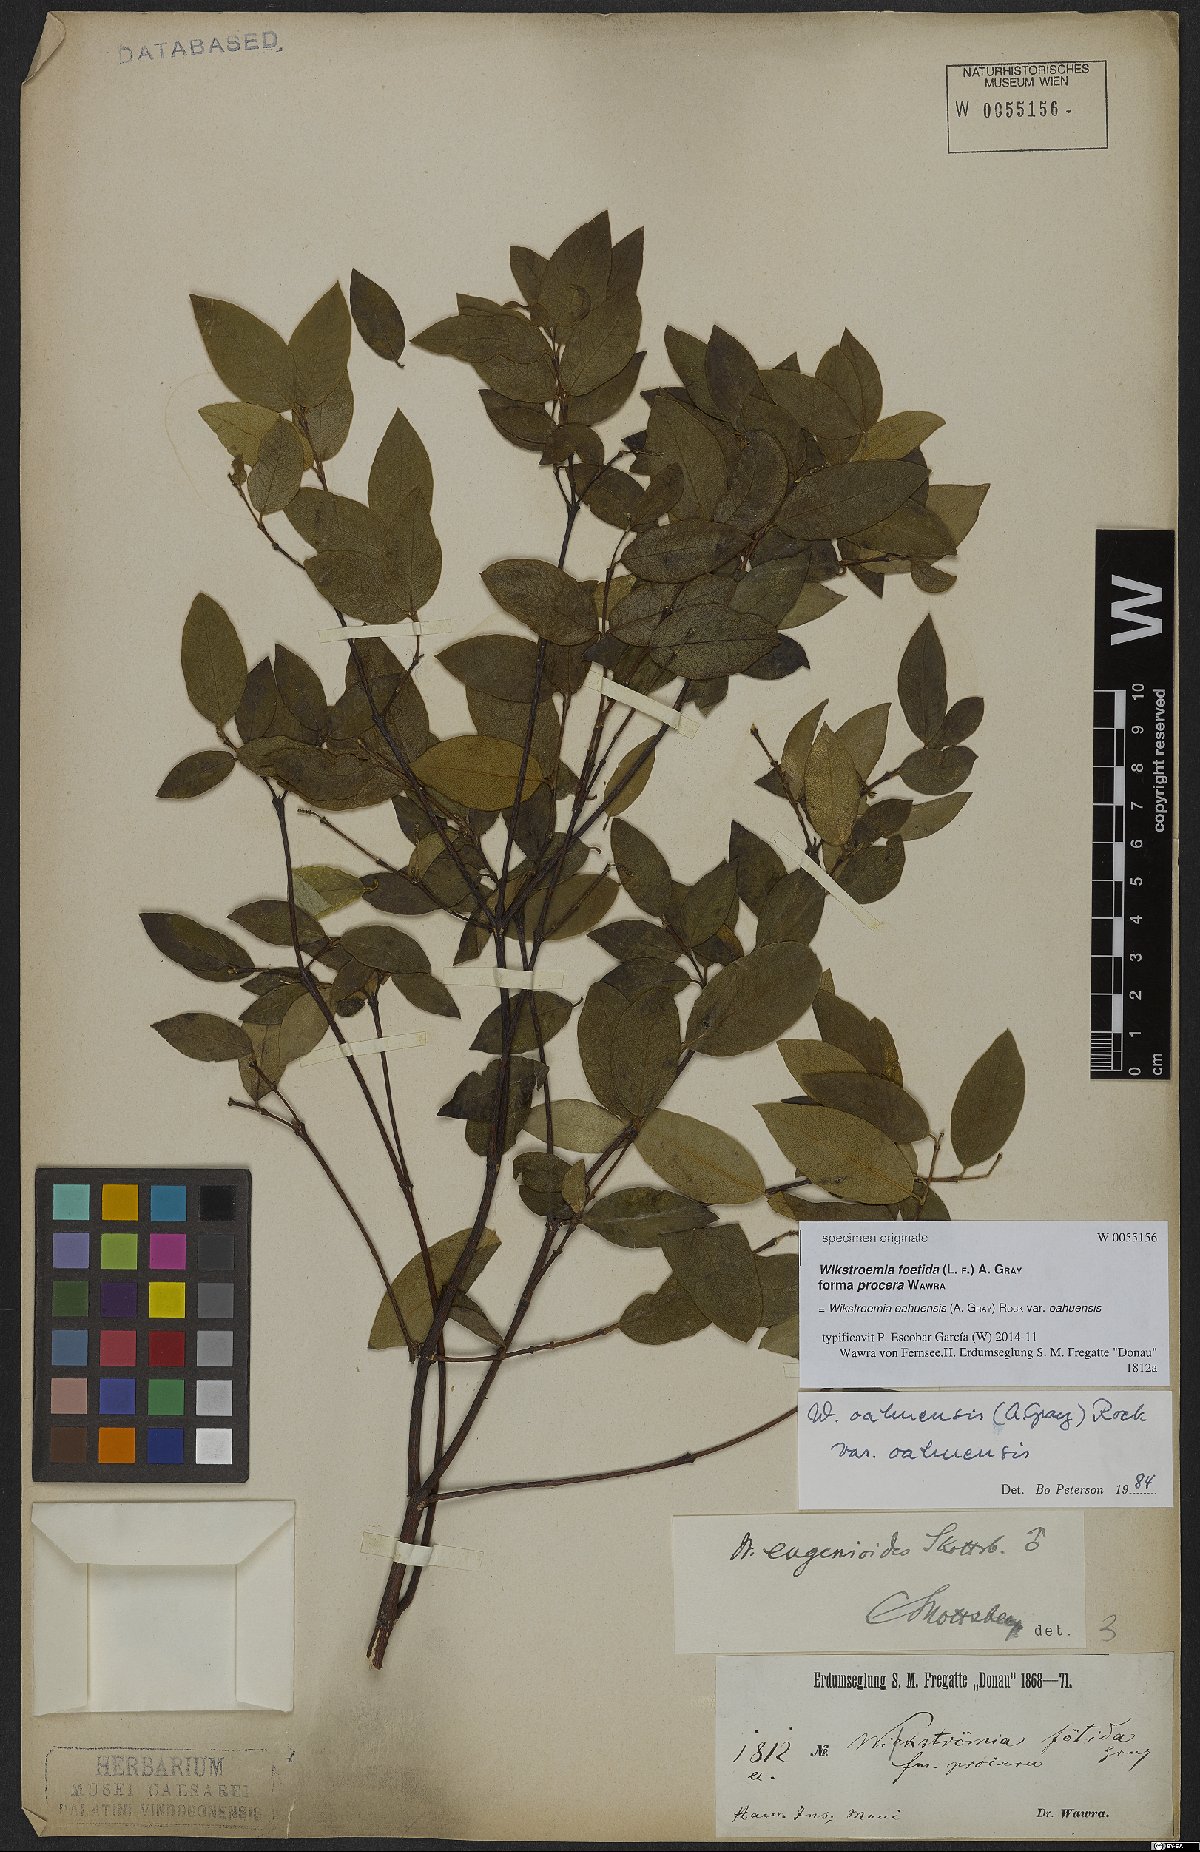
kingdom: Plantae
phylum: Tracheophyta
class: Magnoliopsida
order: Malvales
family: Thymelaeaceae
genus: Wikstroemia
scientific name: Wikstroemia oahuensis
